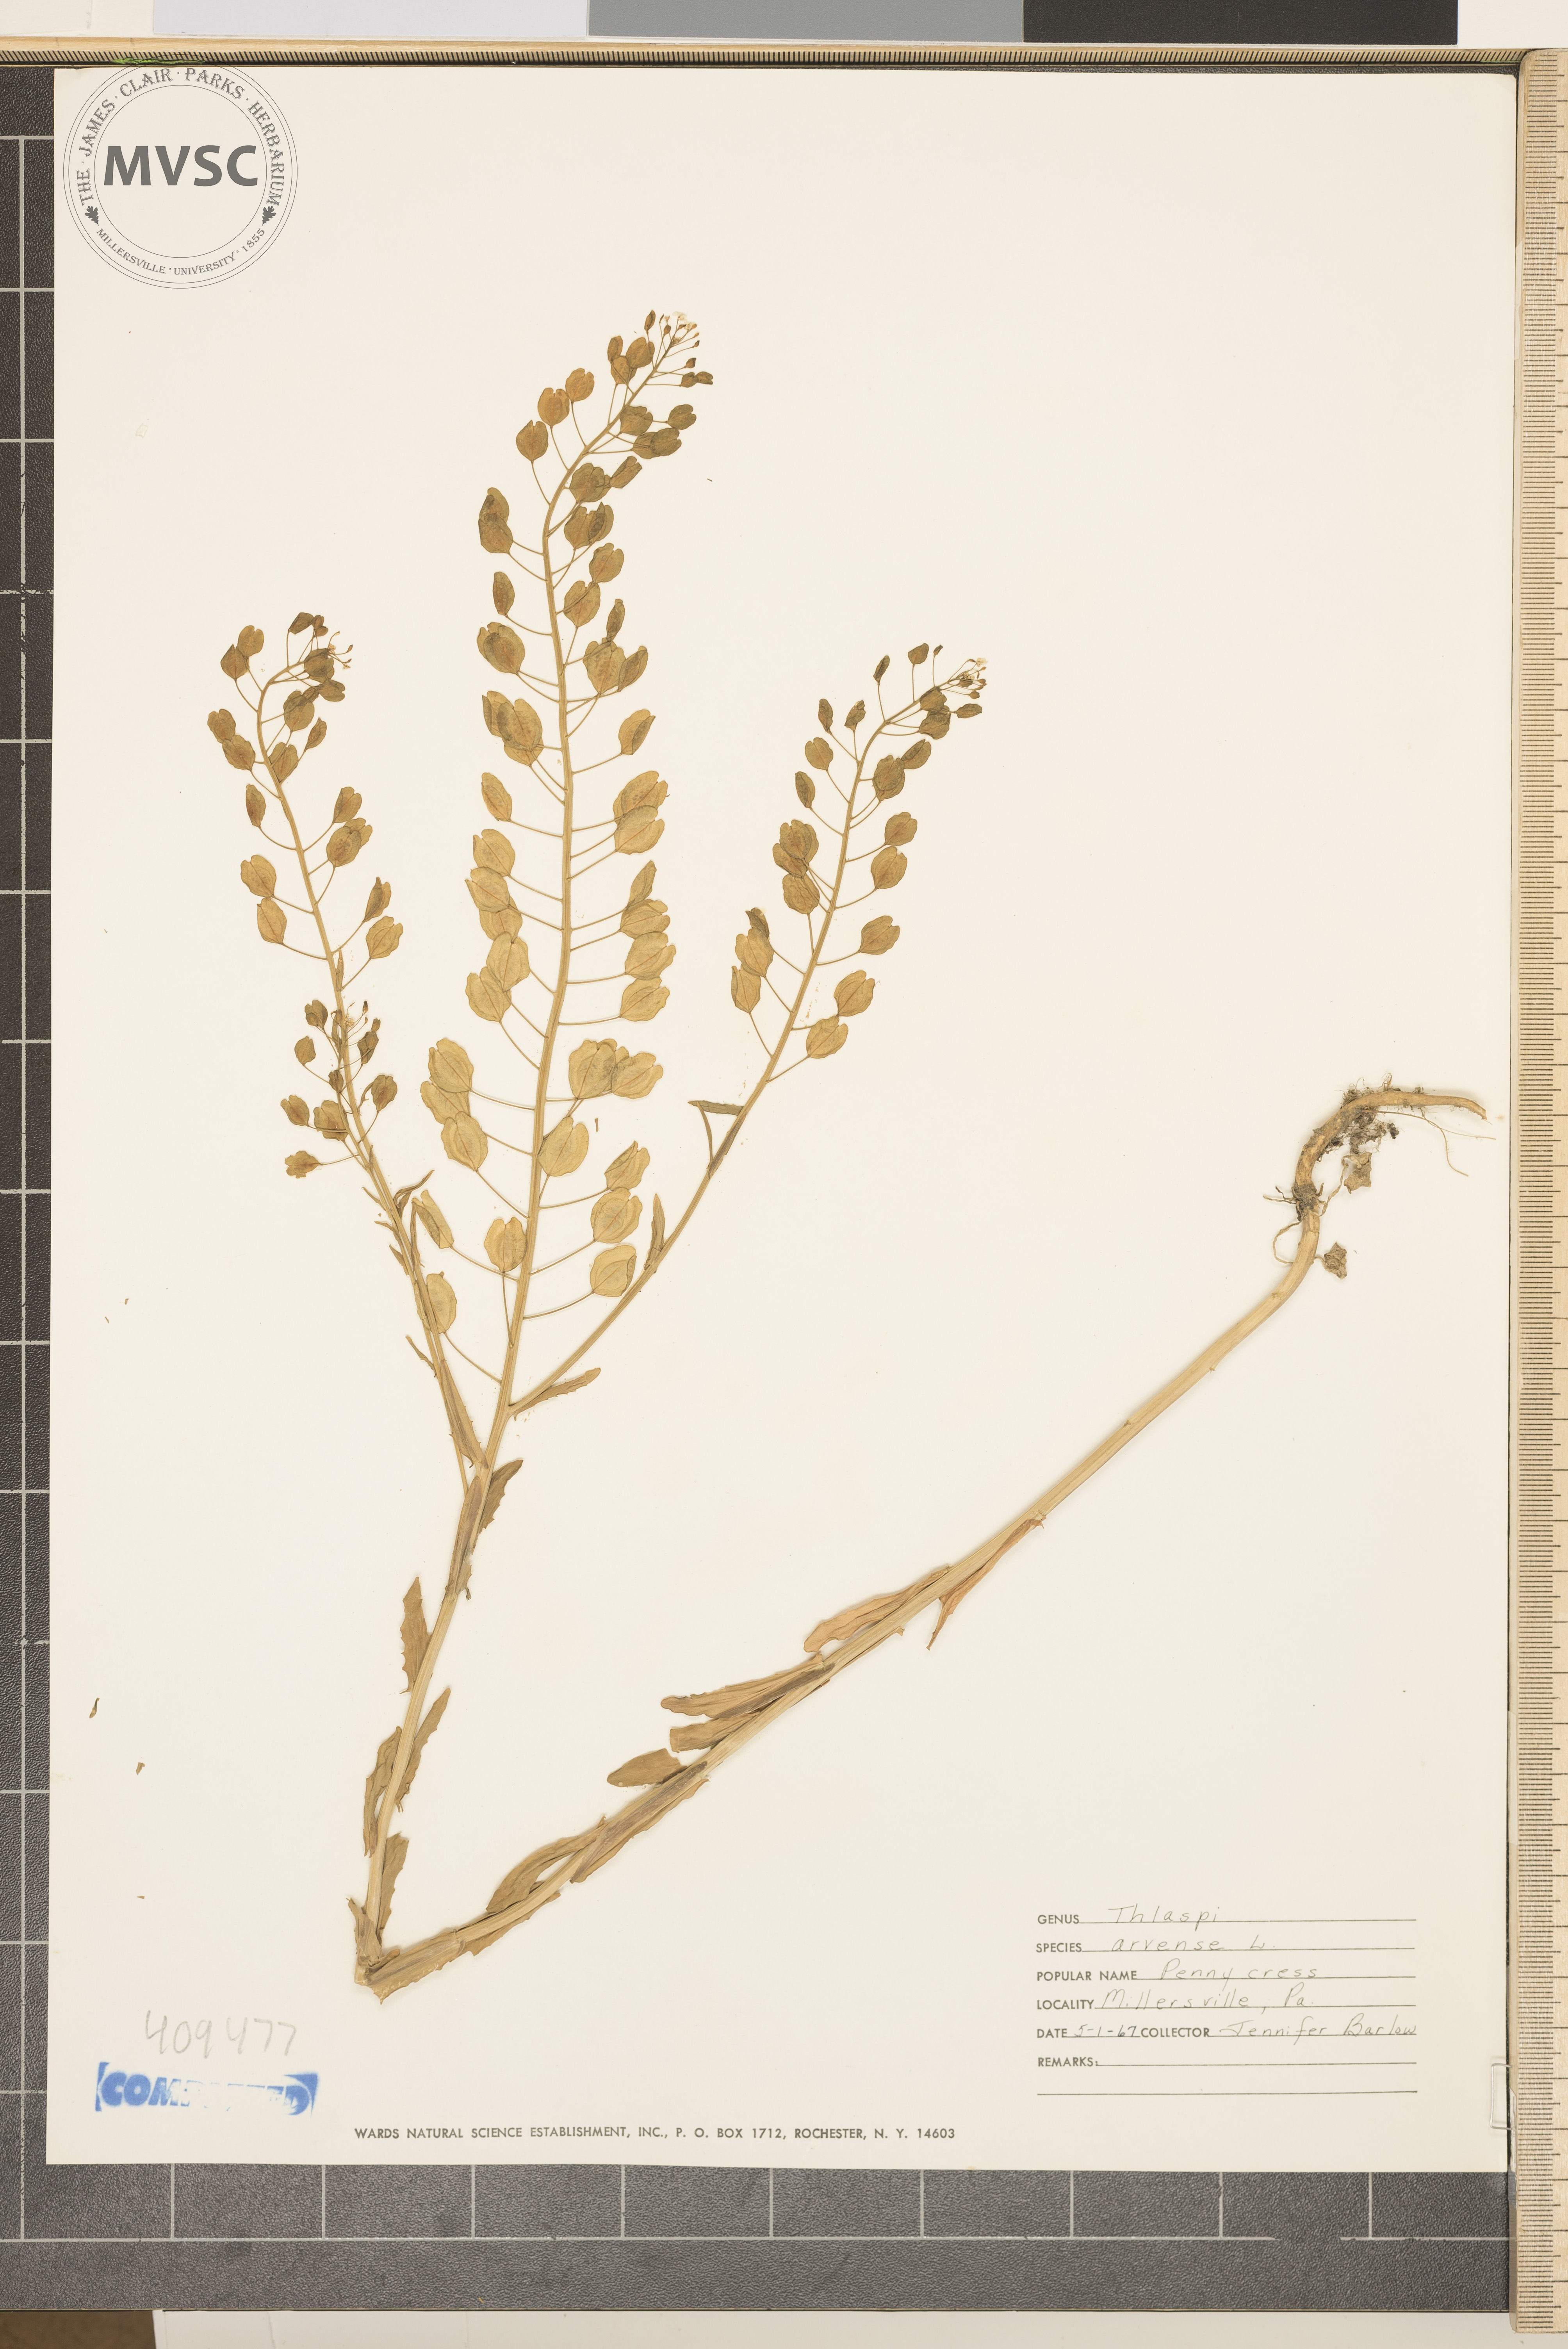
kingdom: Plantae
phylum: Tracheophyta
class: Magnoliopsida
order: Brassicales
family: Brassicaceae
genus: Thlaspi
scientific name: Thlaspi arvense
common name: field pennycress
